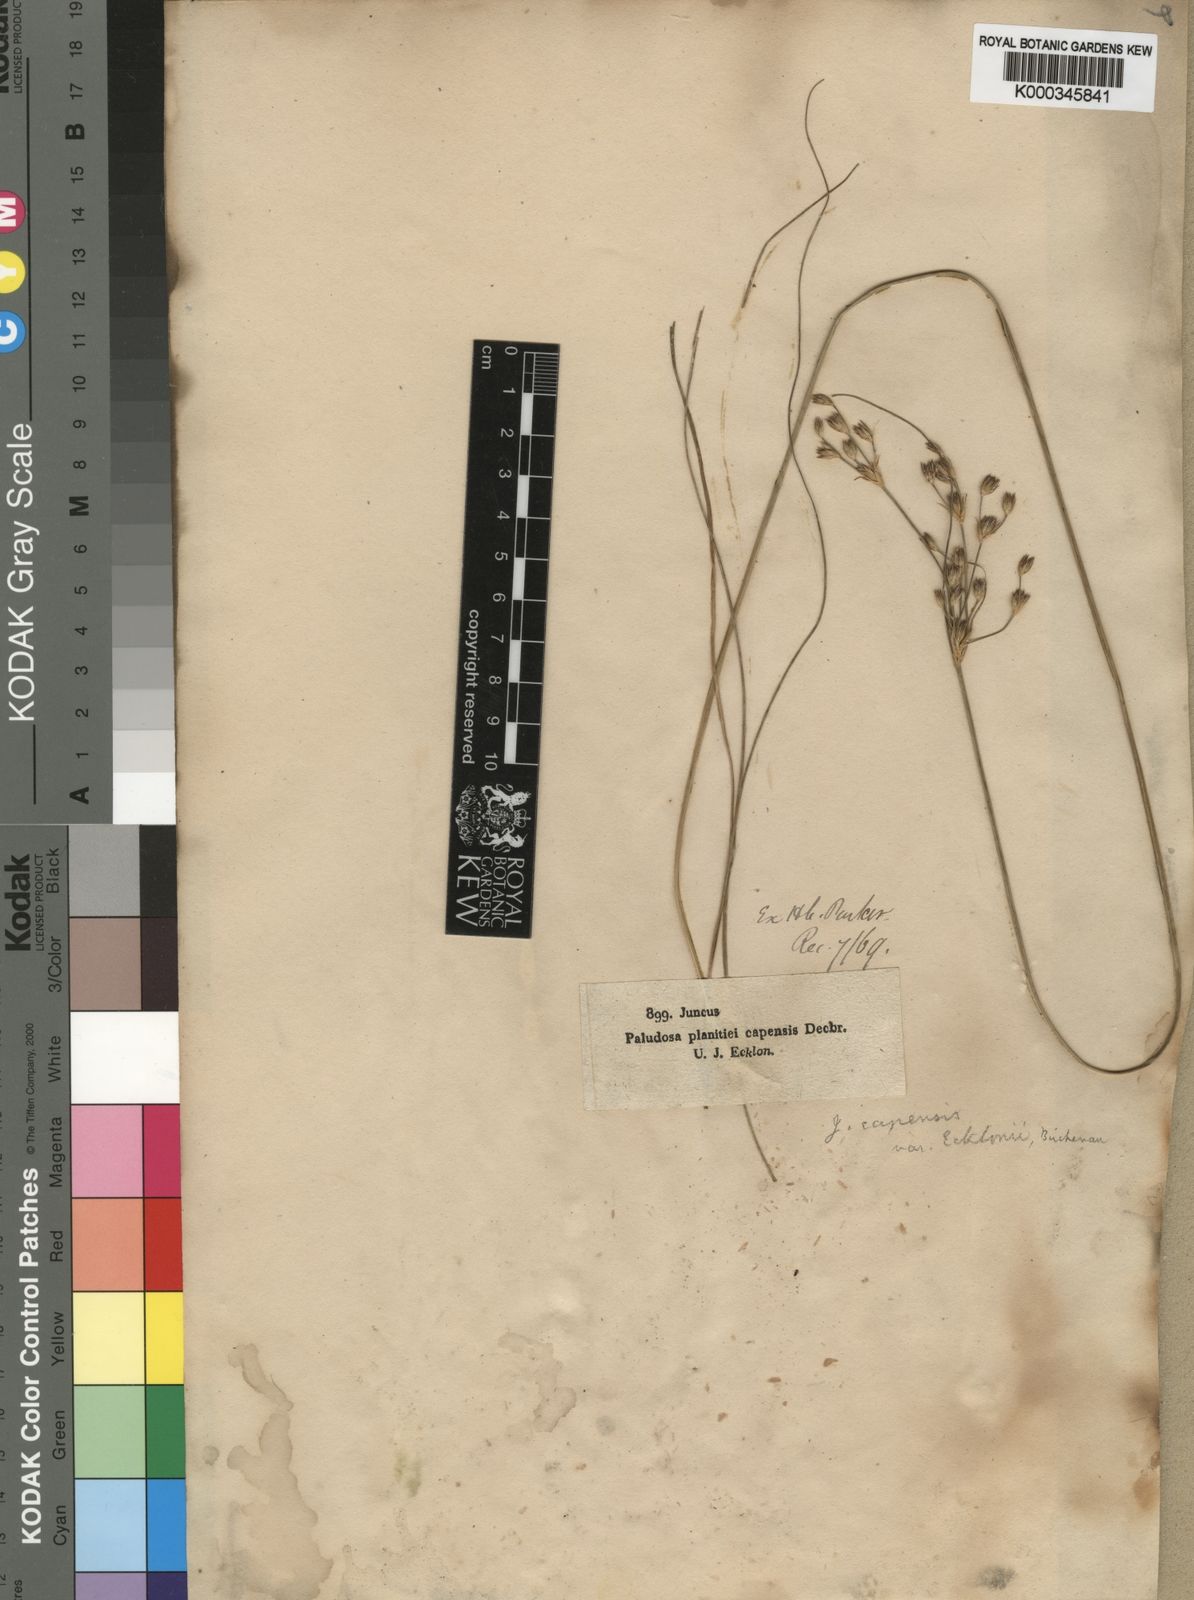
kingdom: Plantae
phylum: Tracheophyta
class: Liliopsida
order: Poales
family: Juncaceae
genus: Juncus
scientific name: Juncus capensis
